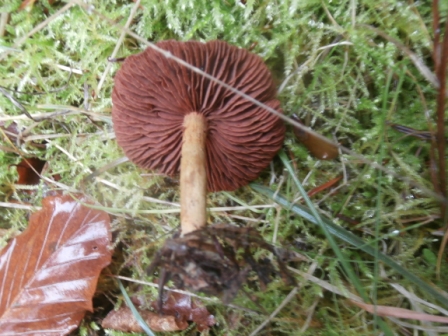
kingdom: Fungi
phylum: Basidiomycota
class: Agaricomycetes
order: Agaricales
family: Cortinariaceae
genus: Cortinarius
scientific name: Cortinarius
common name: cinnoberbladet slørhat
